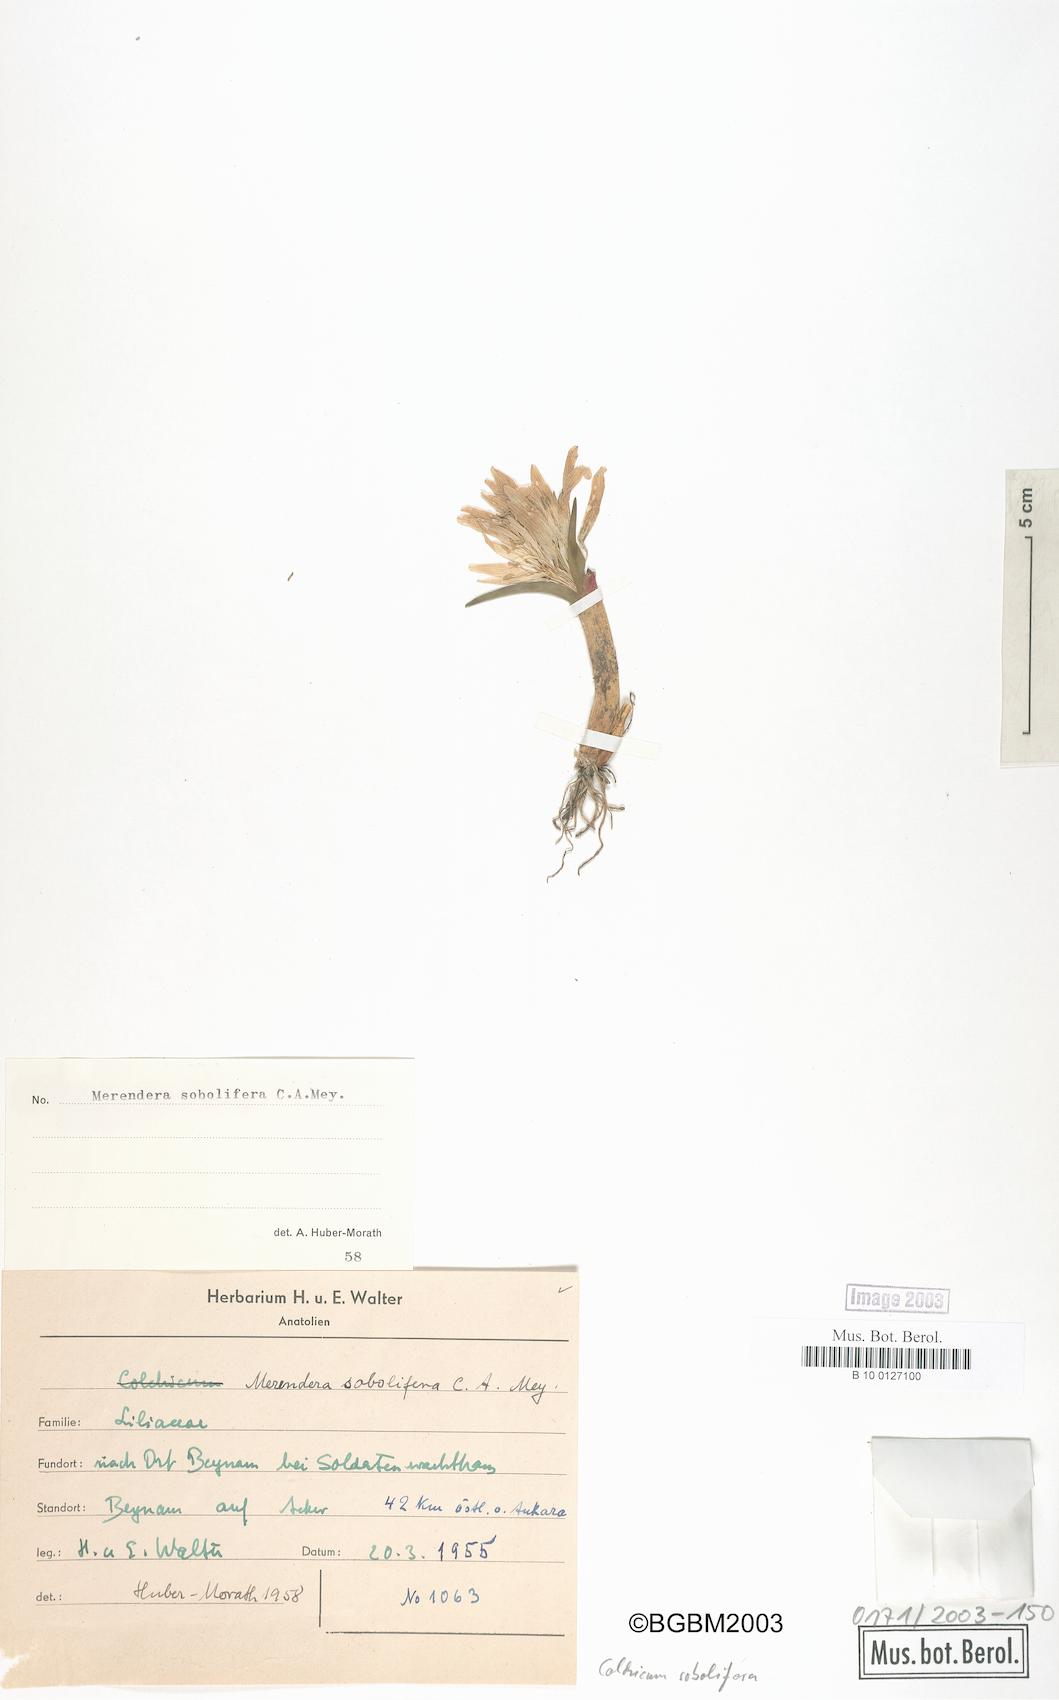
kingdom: Plantae
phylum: Tracheophyta
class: Liliopsida
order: Liliales
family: Colchicaceae
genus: Colchicum
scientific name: Colchicum soboliferum
